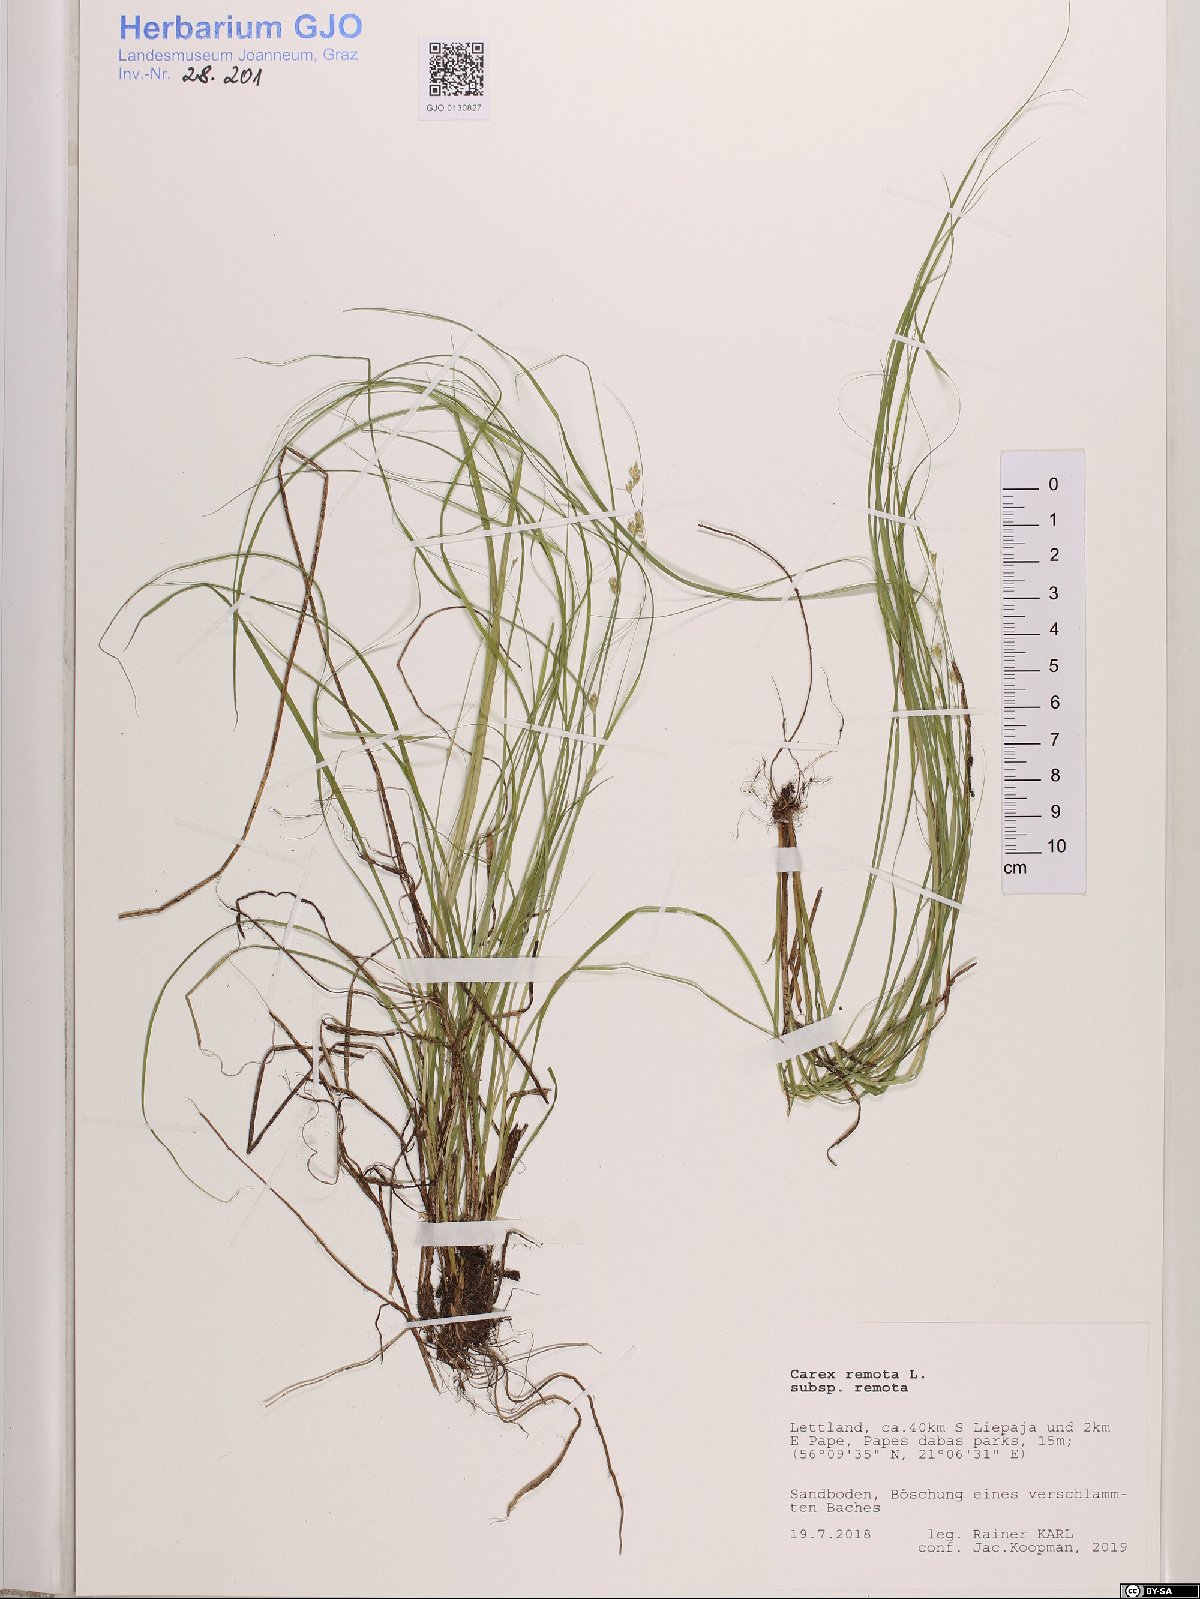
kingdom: Plantae
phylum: Tracheophyta
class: Liliopsida
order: Poales
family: Cyperaceae
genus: Carex
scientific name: Carex remota
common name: Remote sedge
